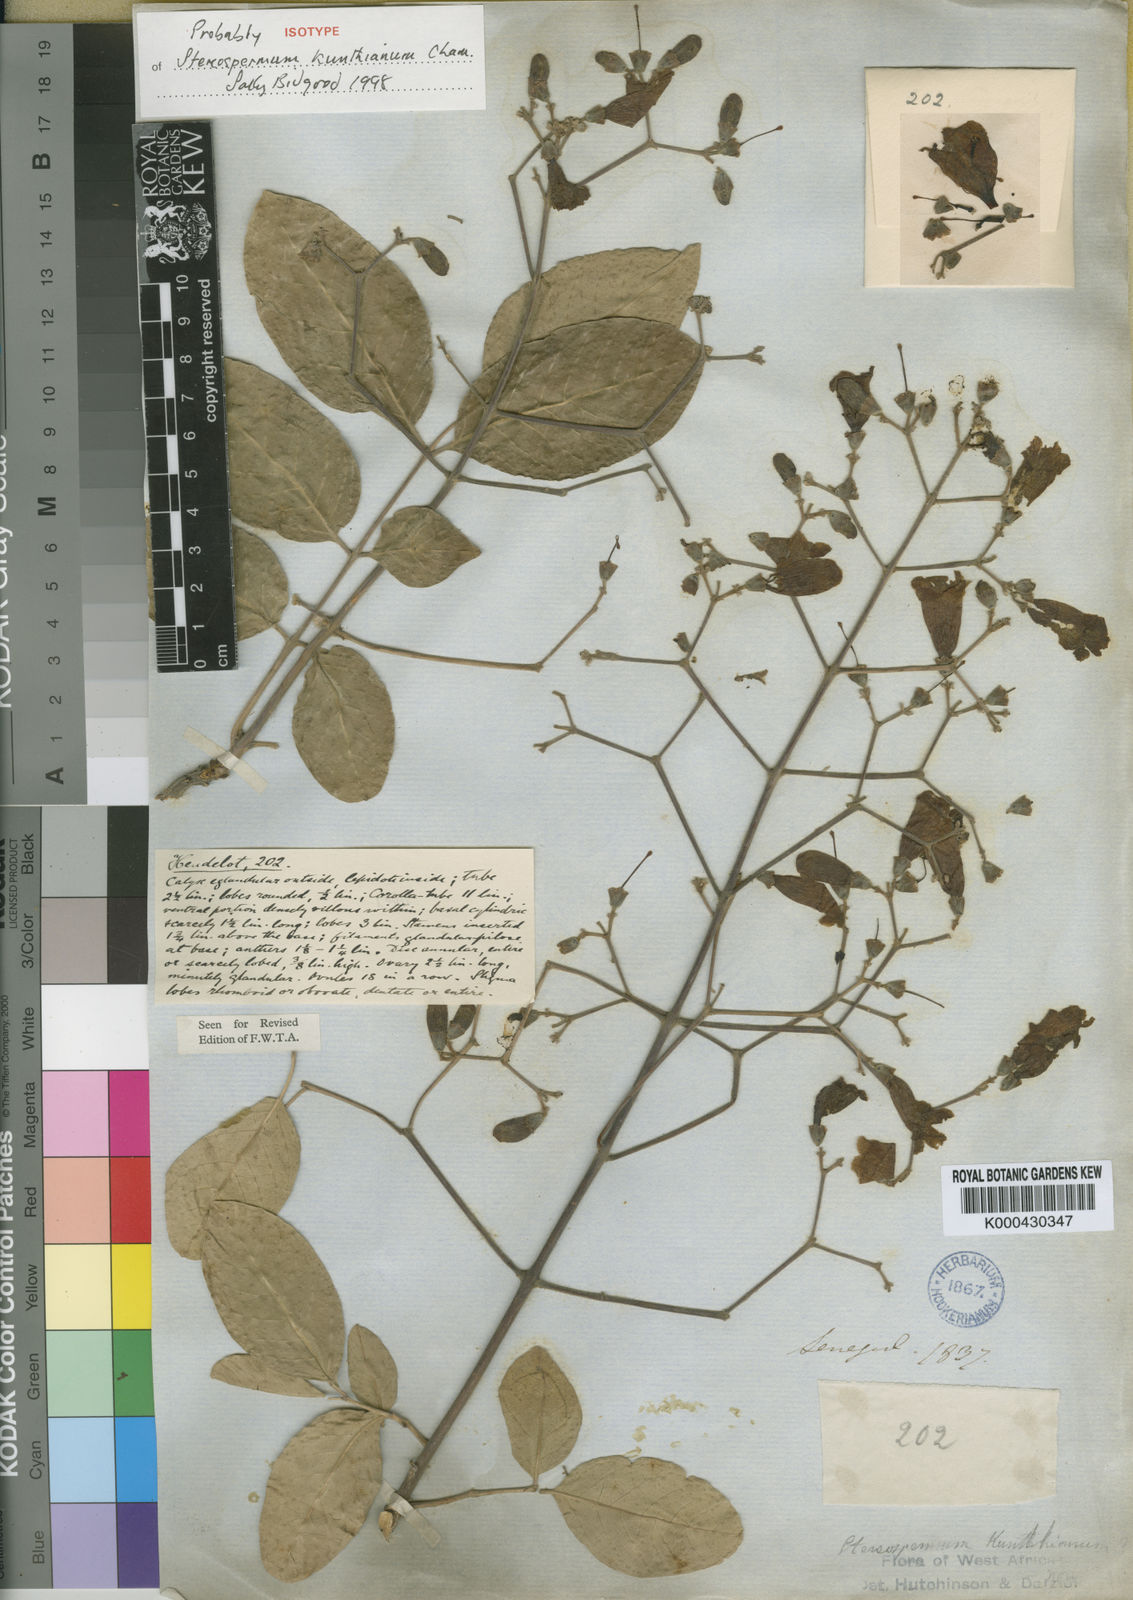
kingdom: Plantae
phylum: Tracheophyta
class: Magnoliopsida
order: Lamiales
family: Bignoniaceae
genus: Stereospermum
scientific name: Stereospermum kunthianum
